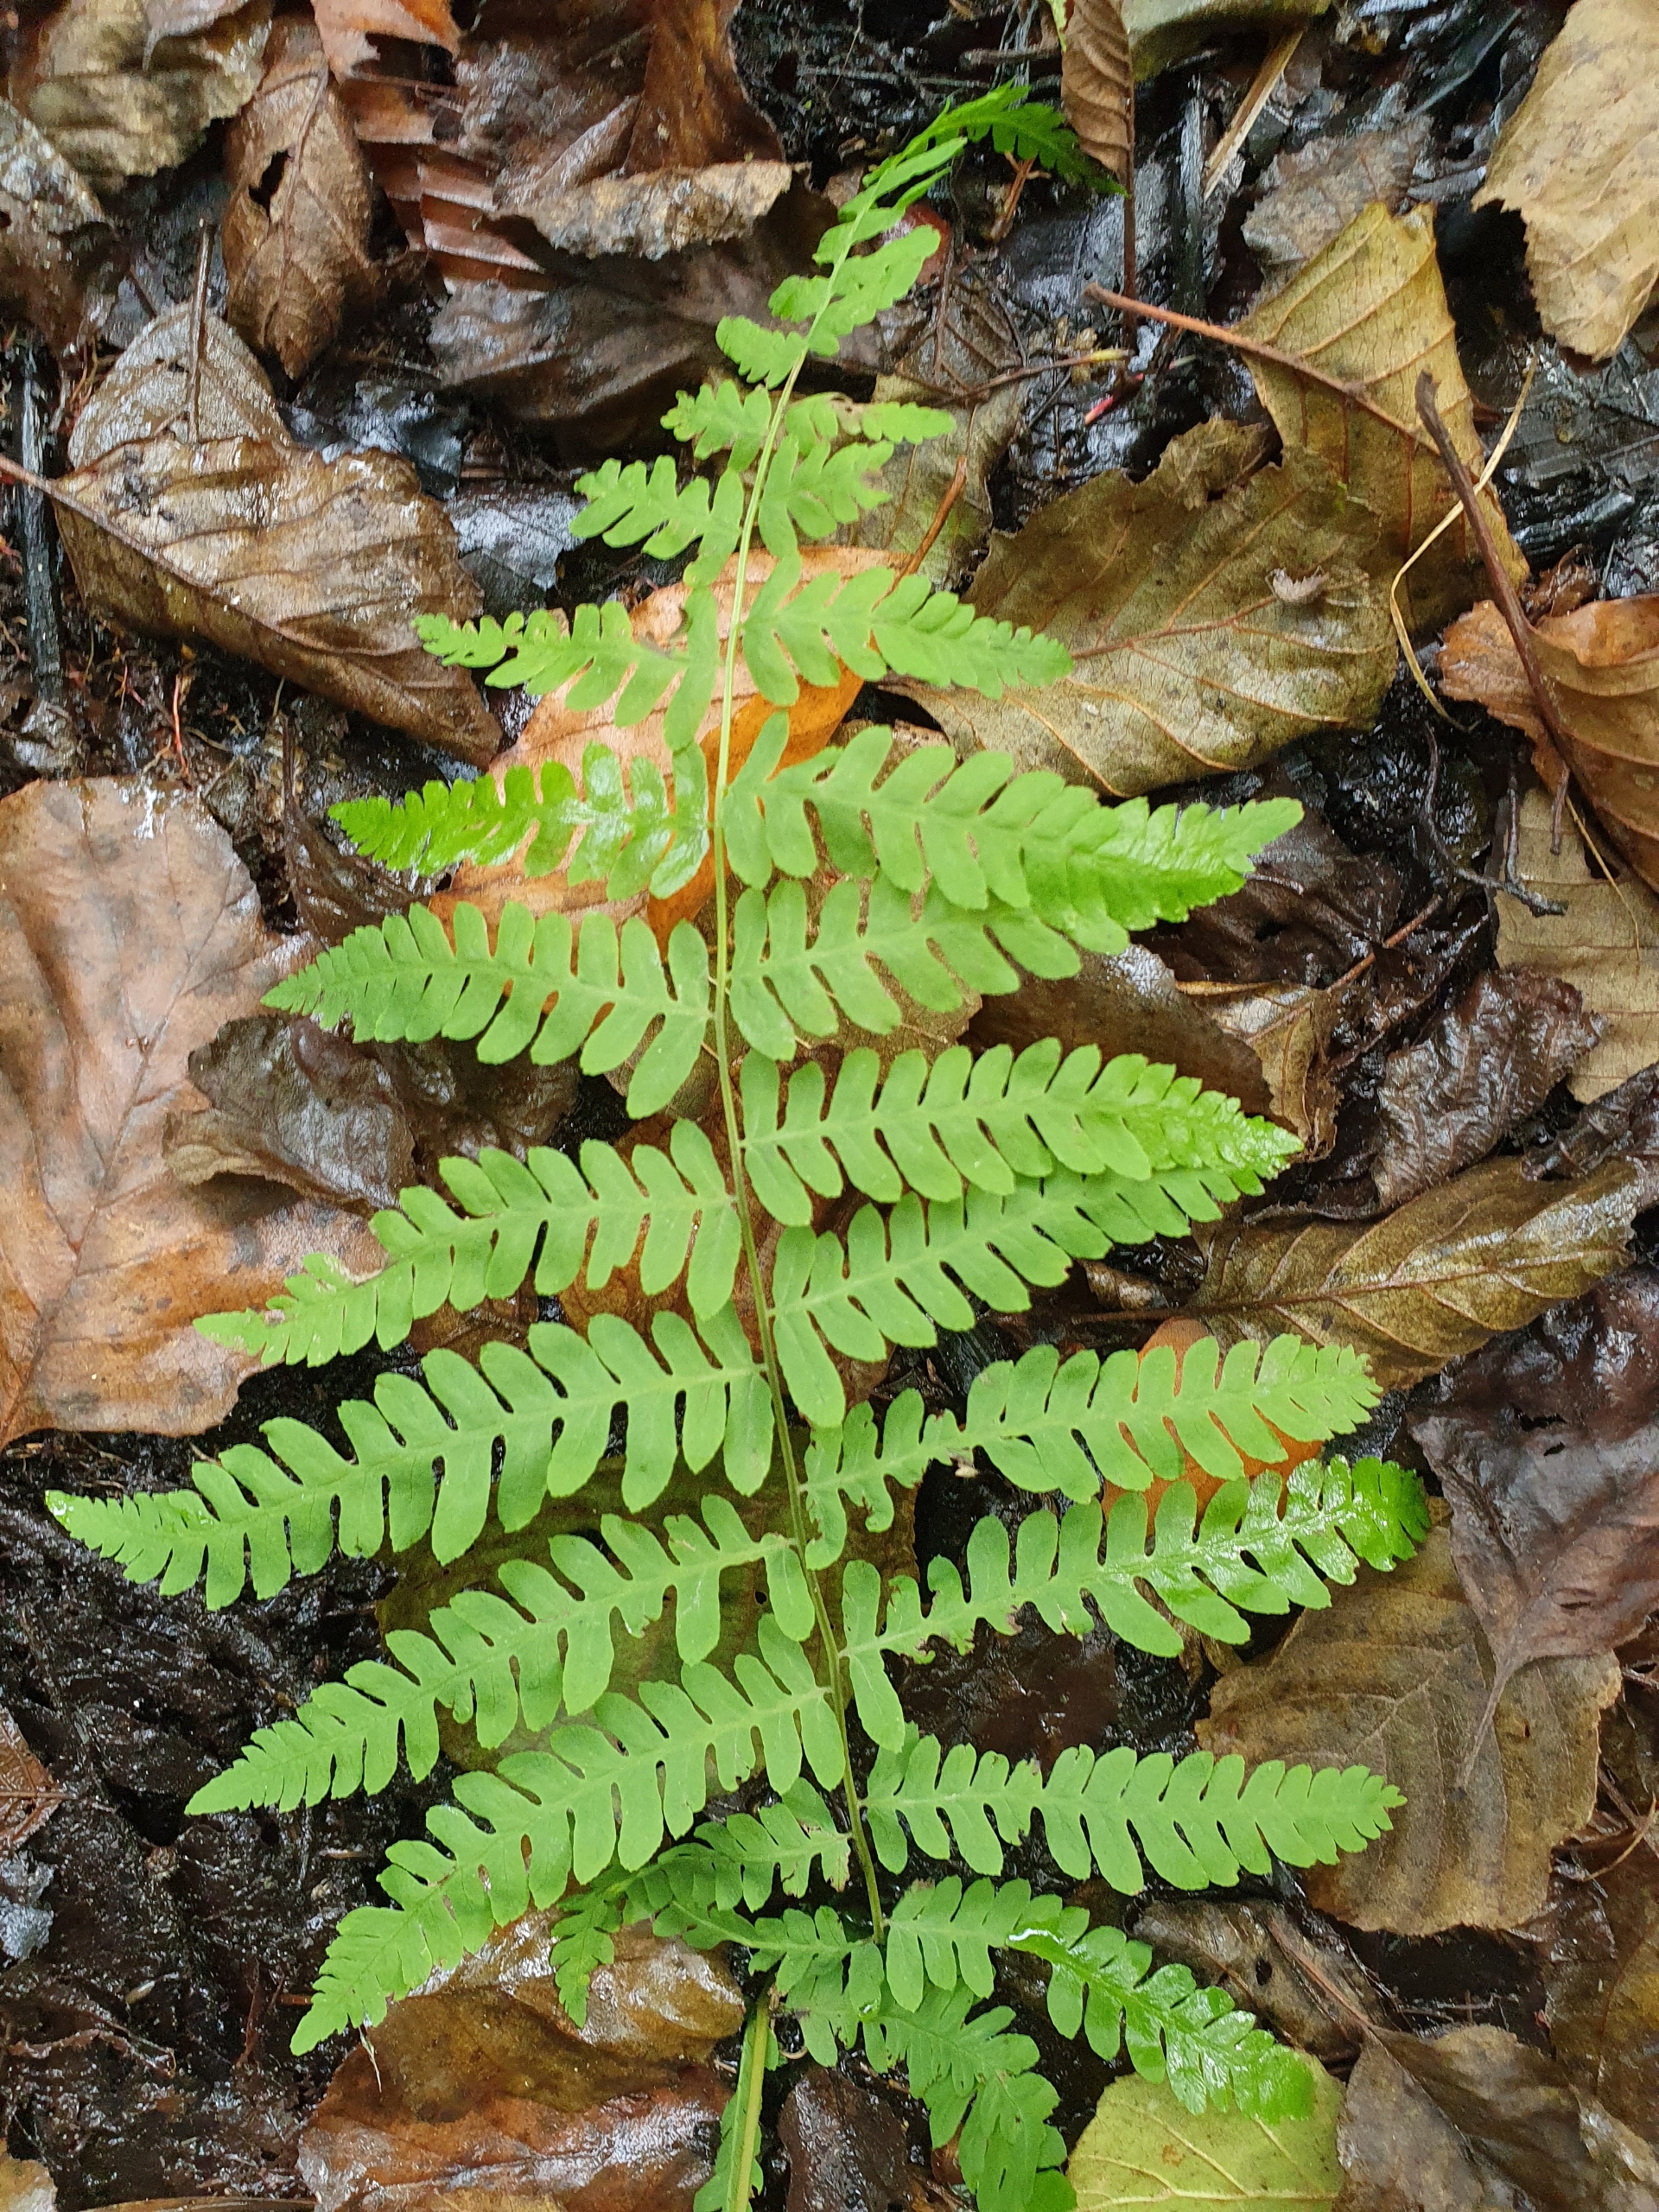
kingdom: Plantae
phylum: Tracheophyta
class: Polypodiopsida
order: Polypodiales
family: Thelypteridaceae
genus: Thelypteris
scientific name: Thelypteris palustris
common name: Kærmangeløv
